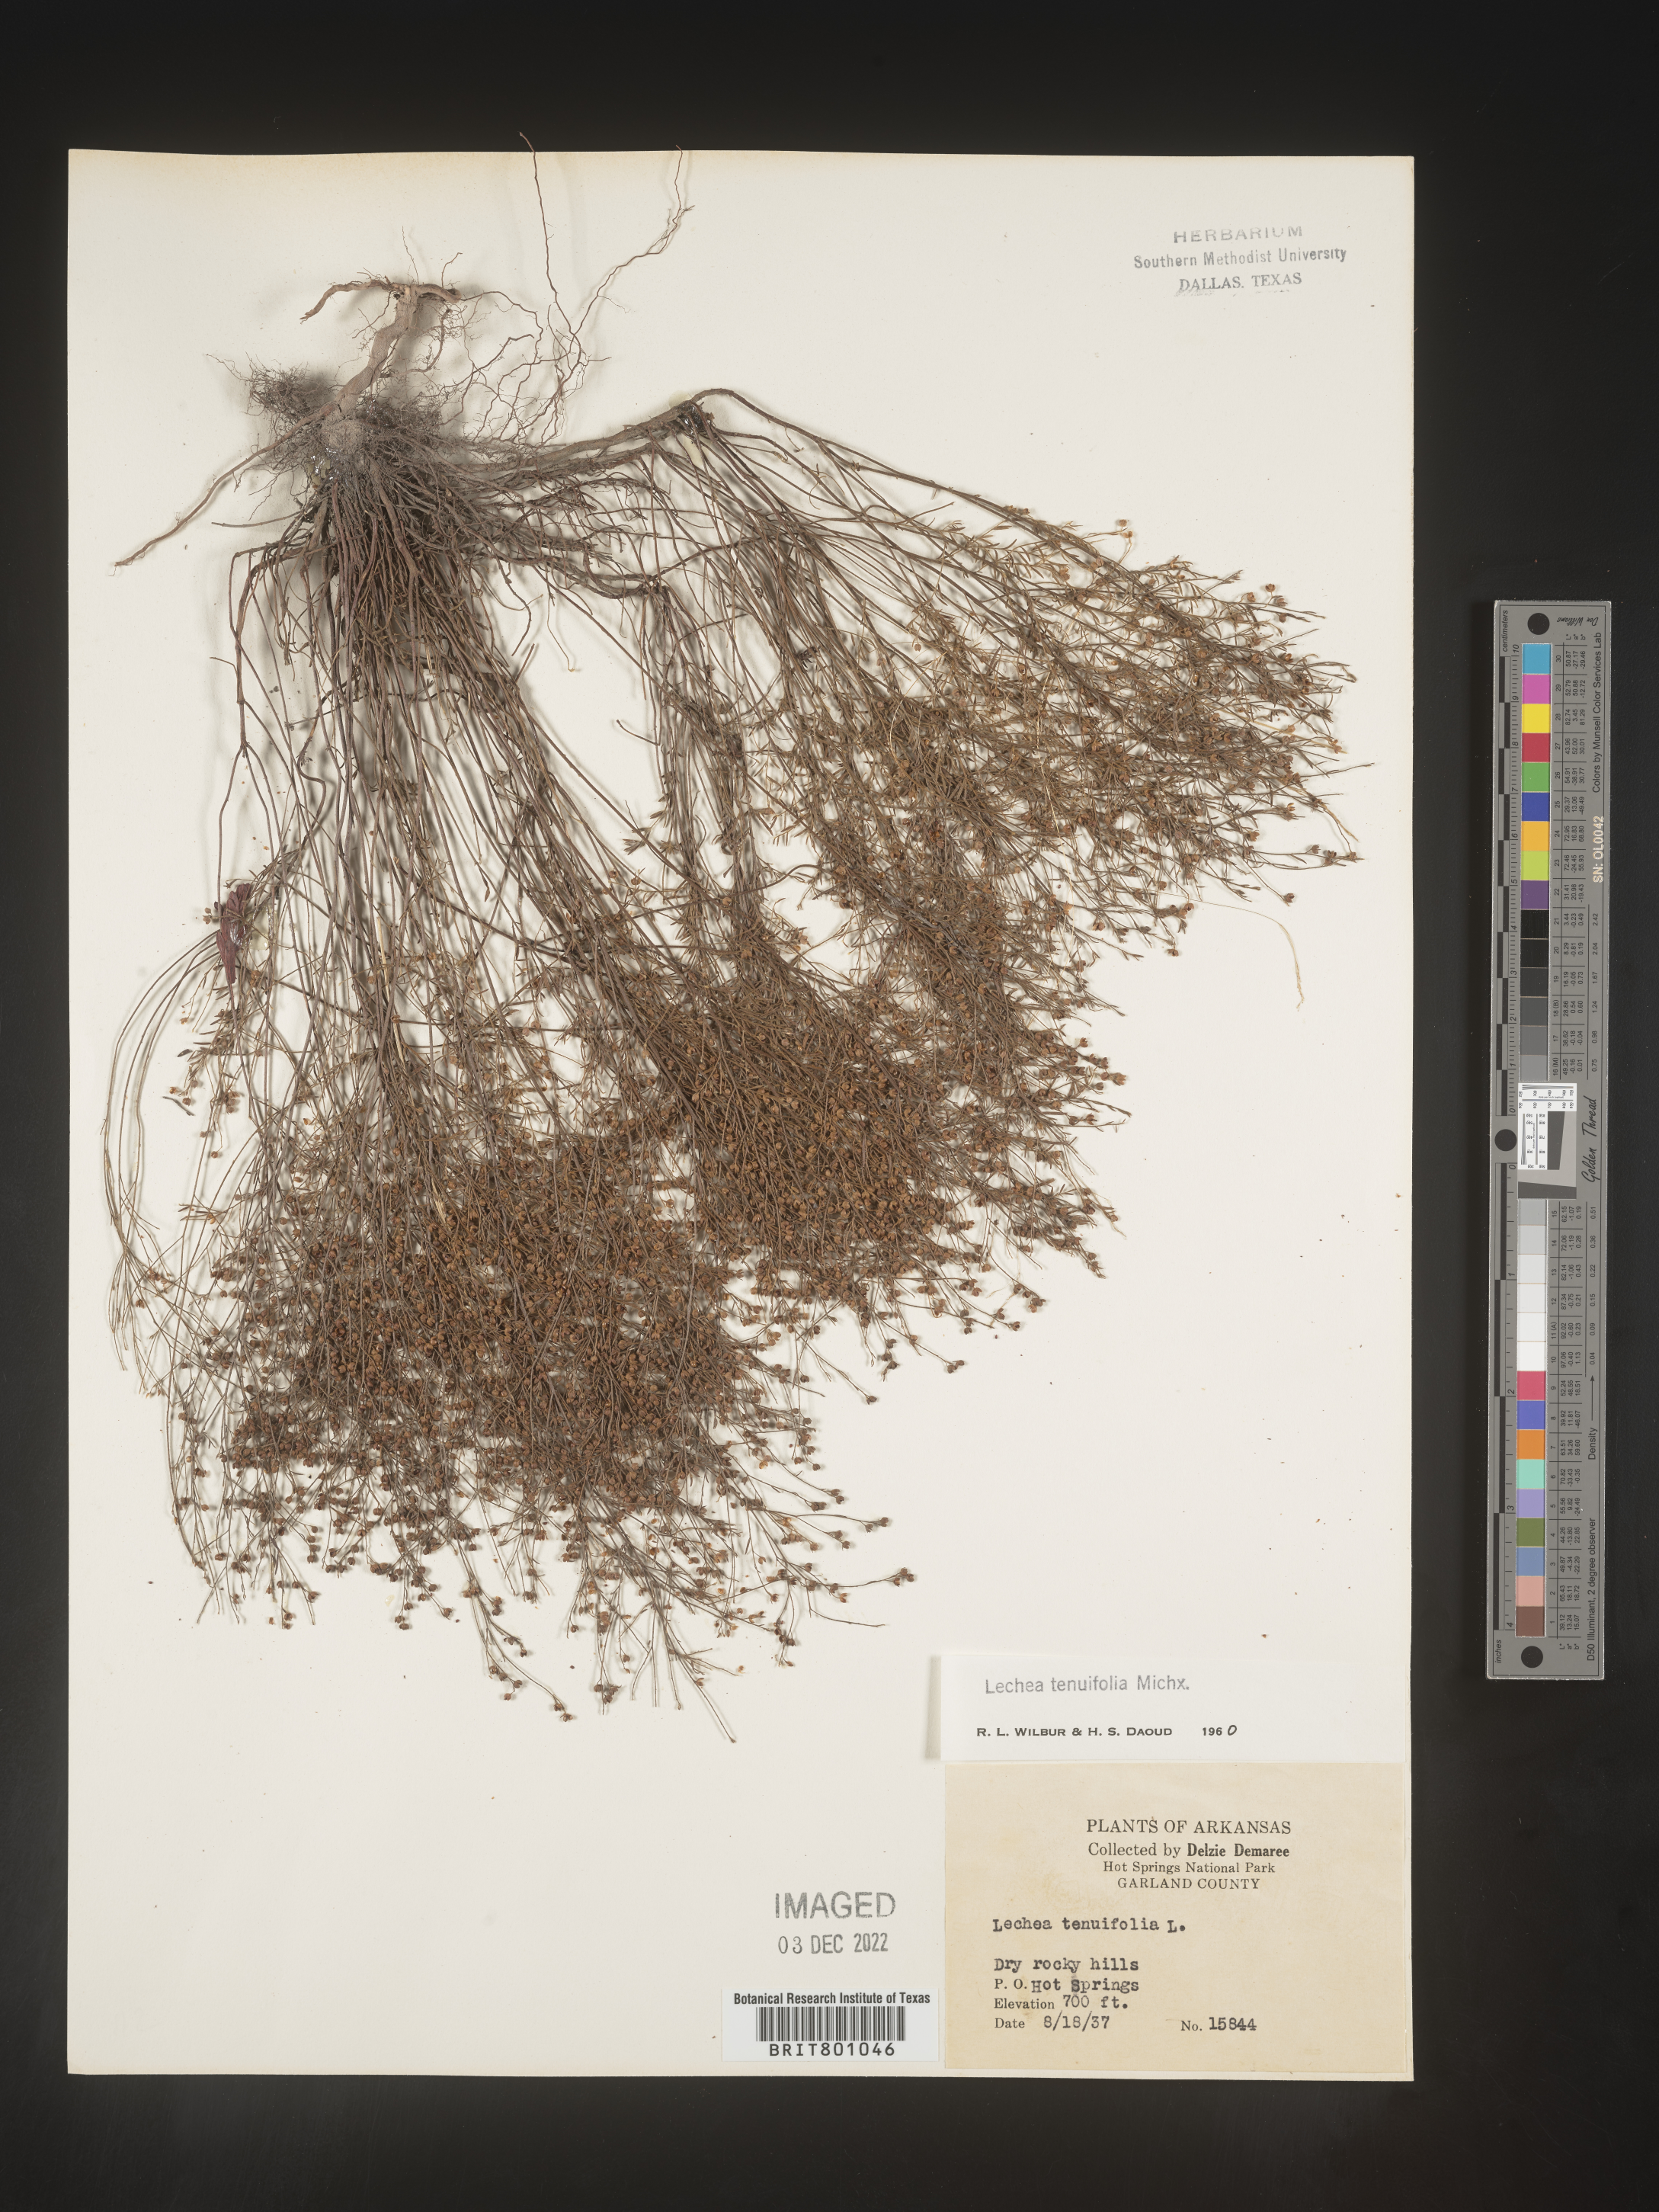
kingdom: Plantae
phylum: Tracheophyta
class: Magnoliopsida
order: Malvales
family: Cistaceae
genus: Lechea
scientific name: Lechea tenuifolia
